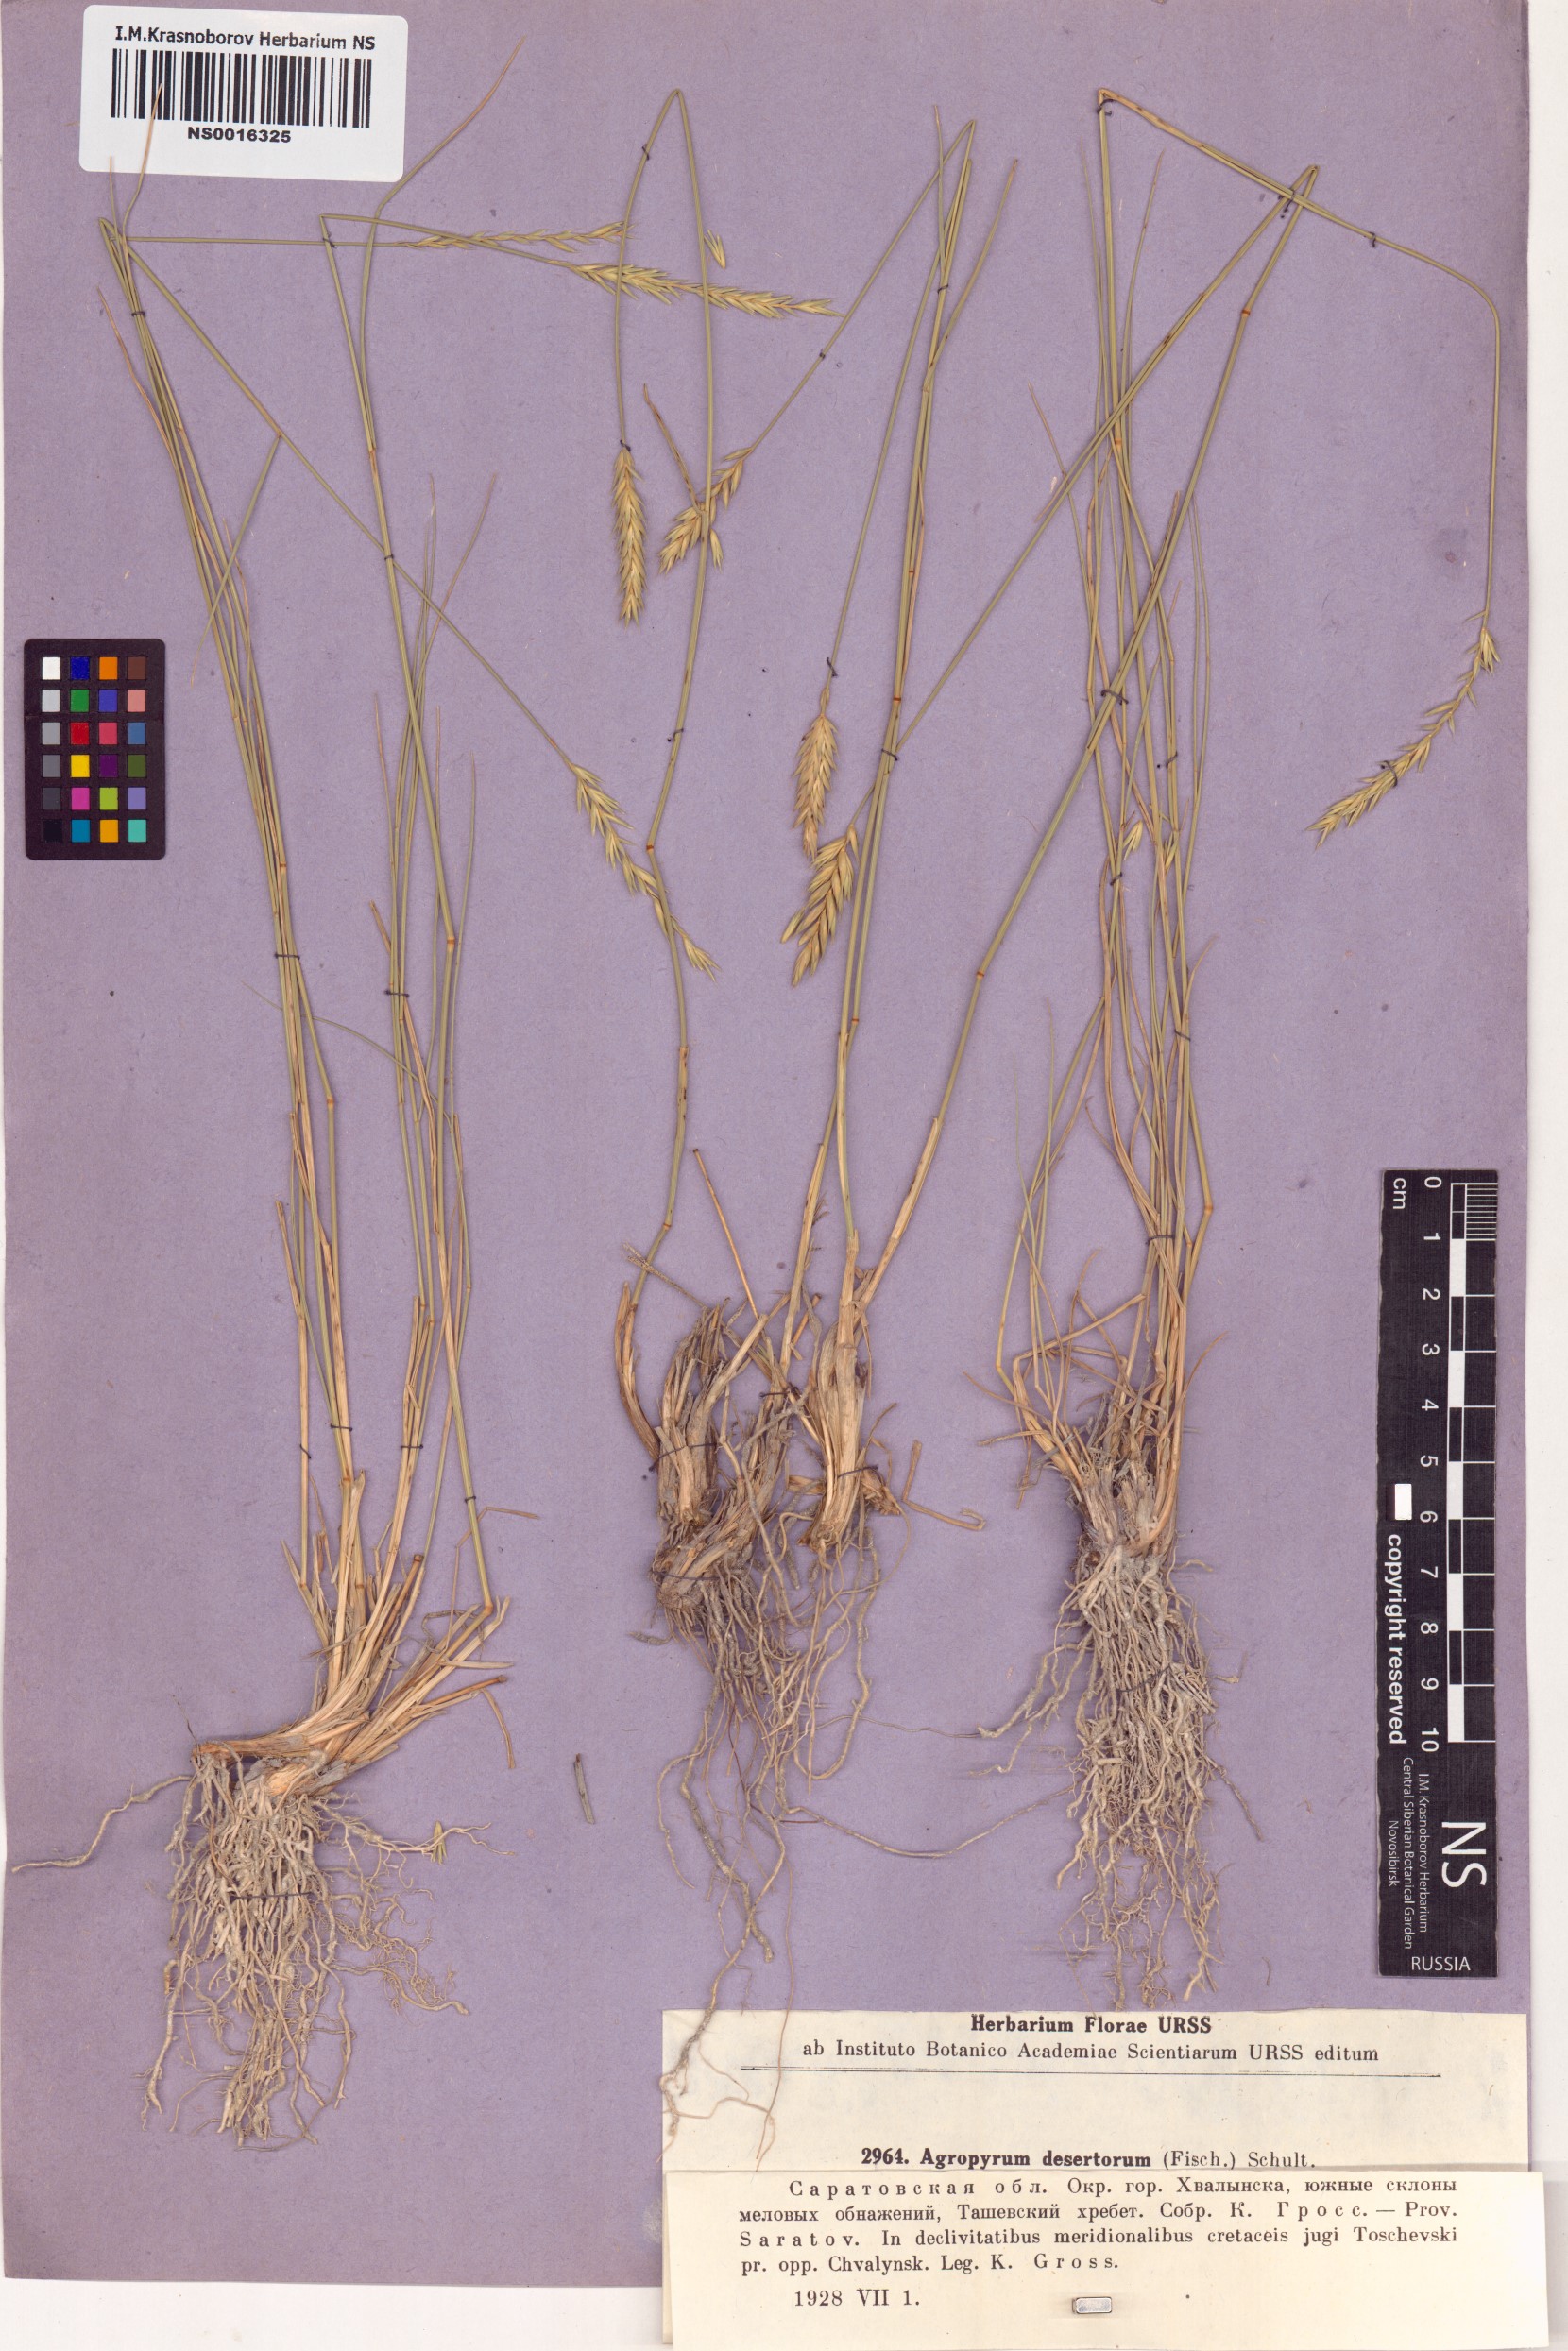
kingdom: Plantae
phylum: Tracheophyta
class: Liliopsida
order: Poales
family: Poaceae
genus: Agropyron
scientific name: Agropyron desertorum
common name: Desert wheatgrass
